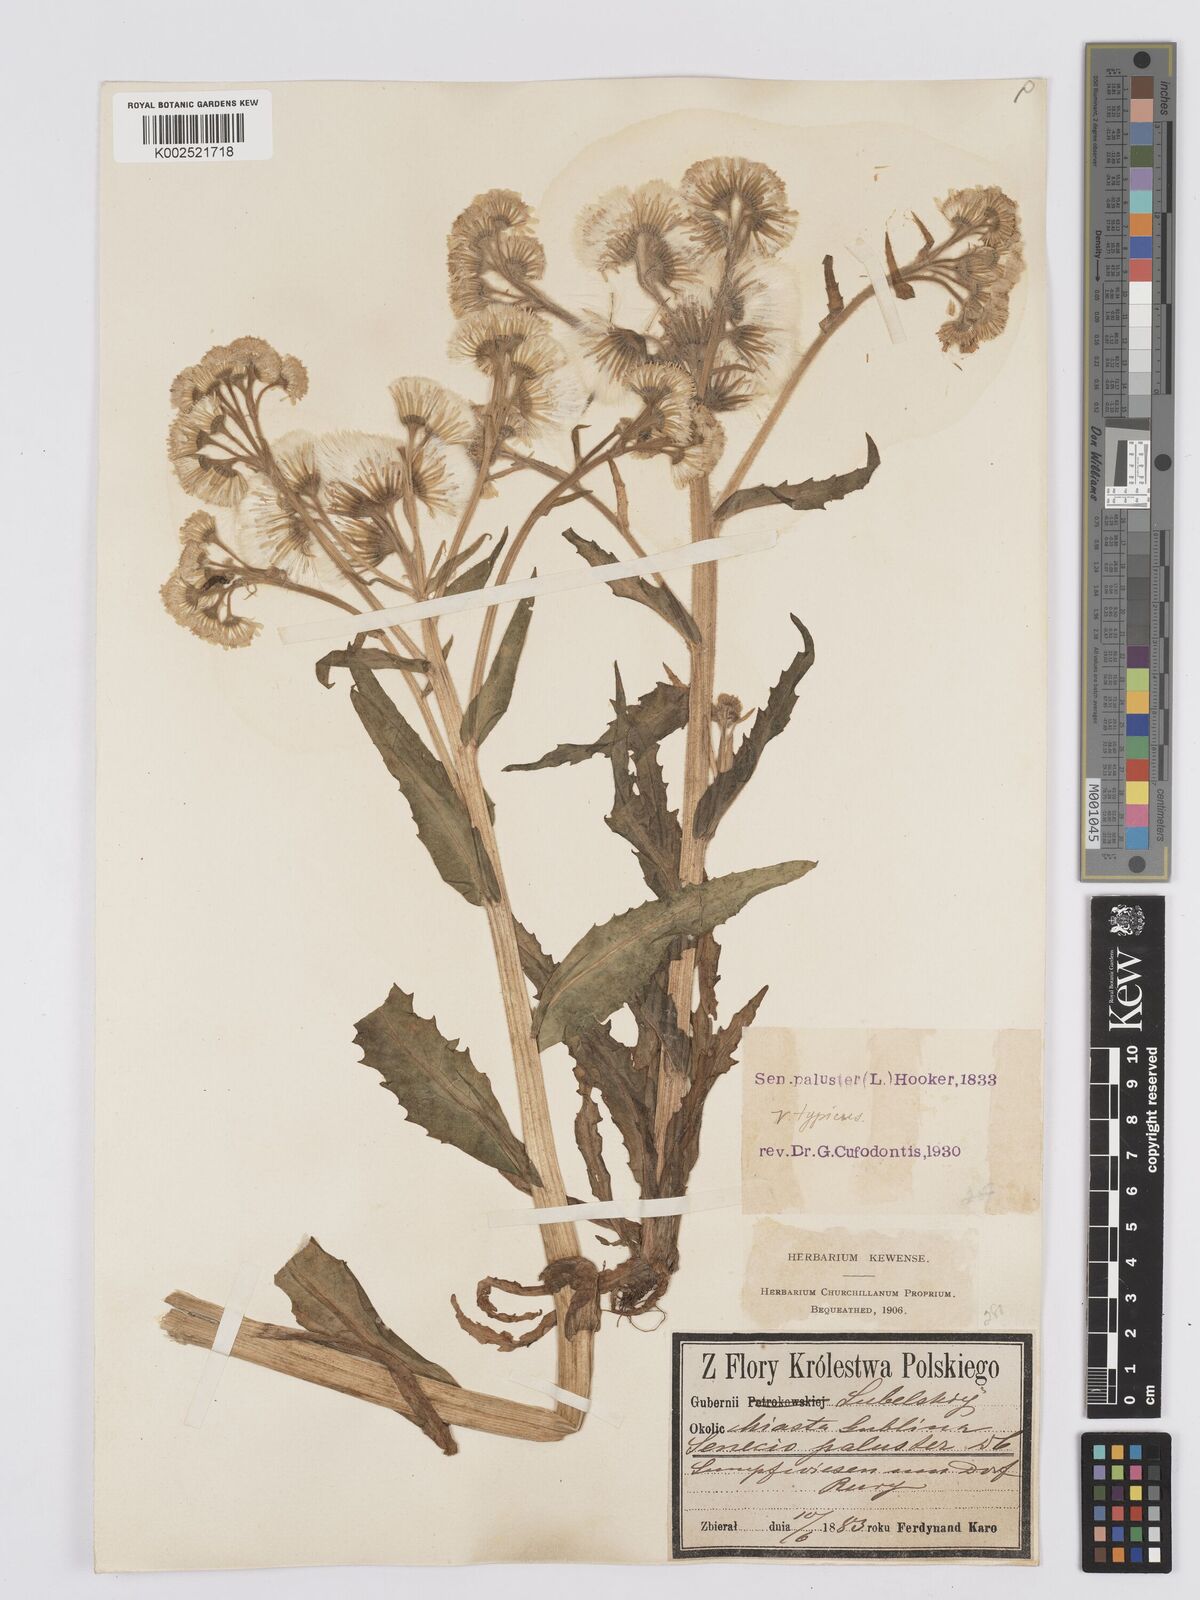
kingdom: Plantae
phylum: Tracheophyta
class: Magnoliopsida
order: Asterales
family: Asteraceae
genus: Tephroseris
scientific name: Tephroseris palustris
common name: Marsh fleawort
